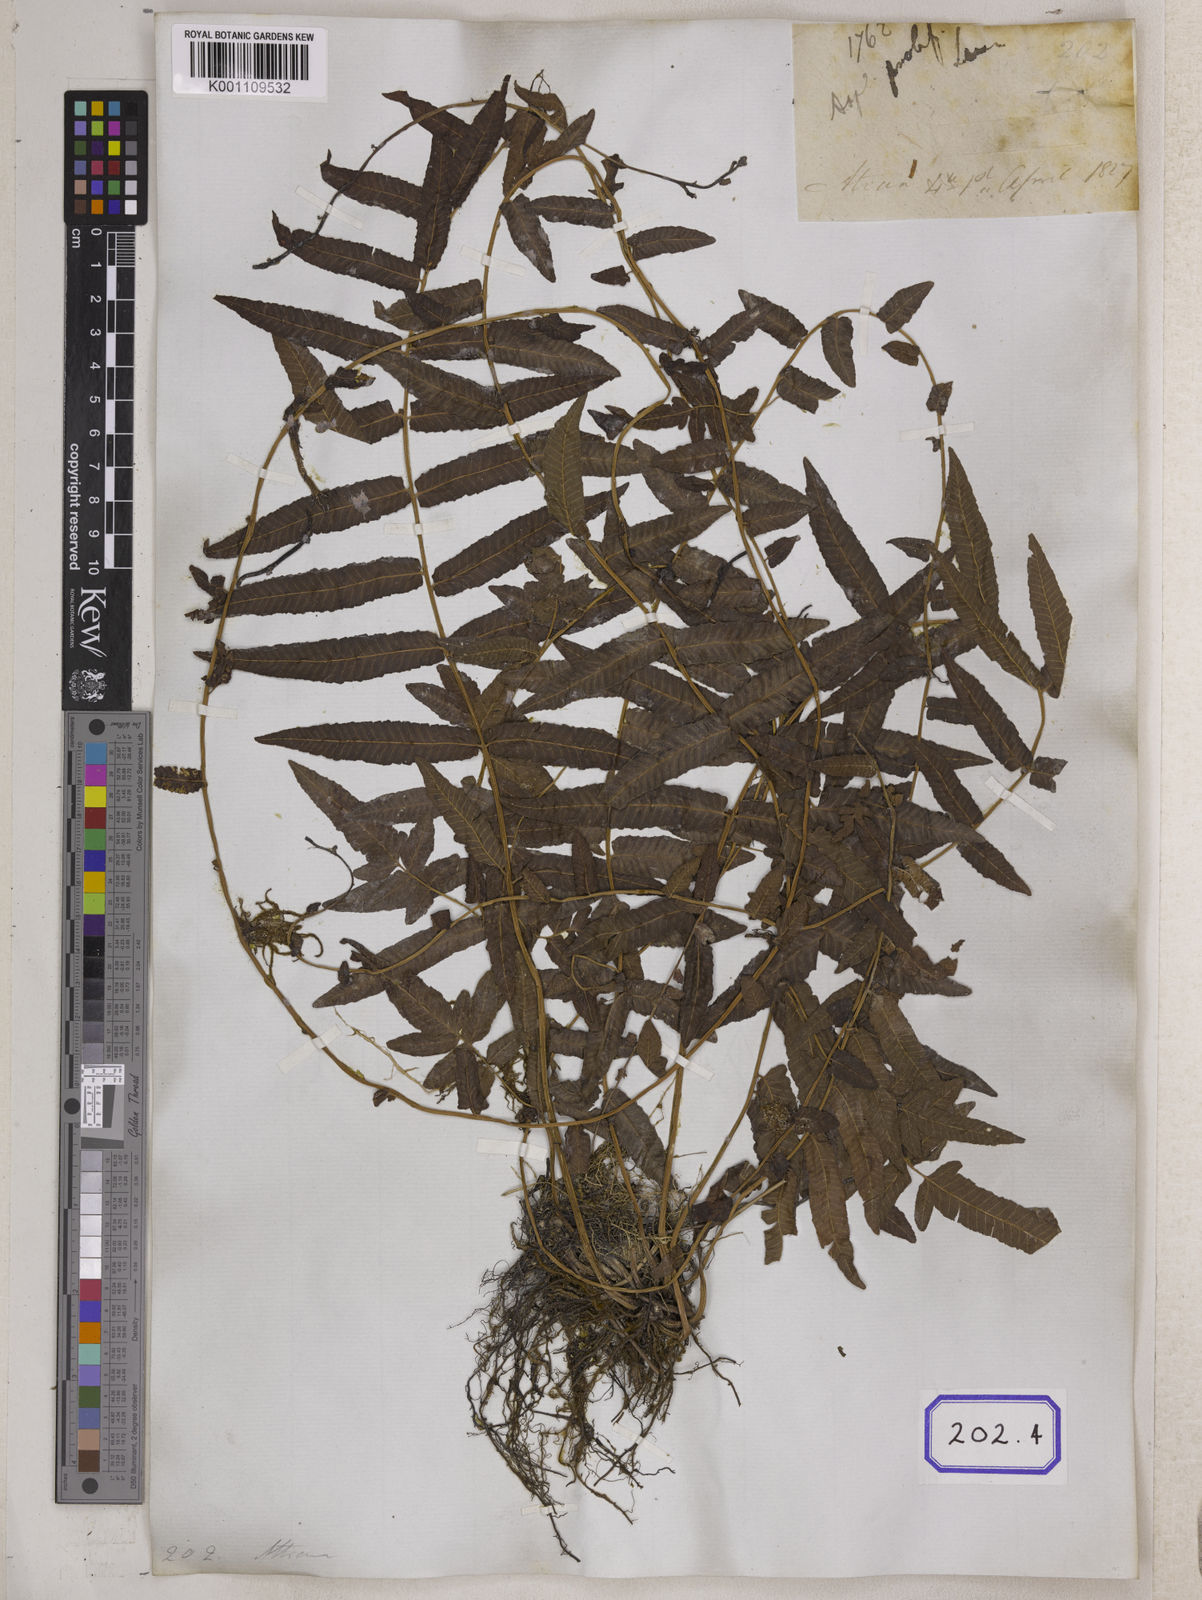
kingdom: Plantae
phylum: Tracheophyta
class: Polypodiopsida
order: Polypodiales
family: Aspleniaceae
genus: Asplenium
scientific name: Asplenium
